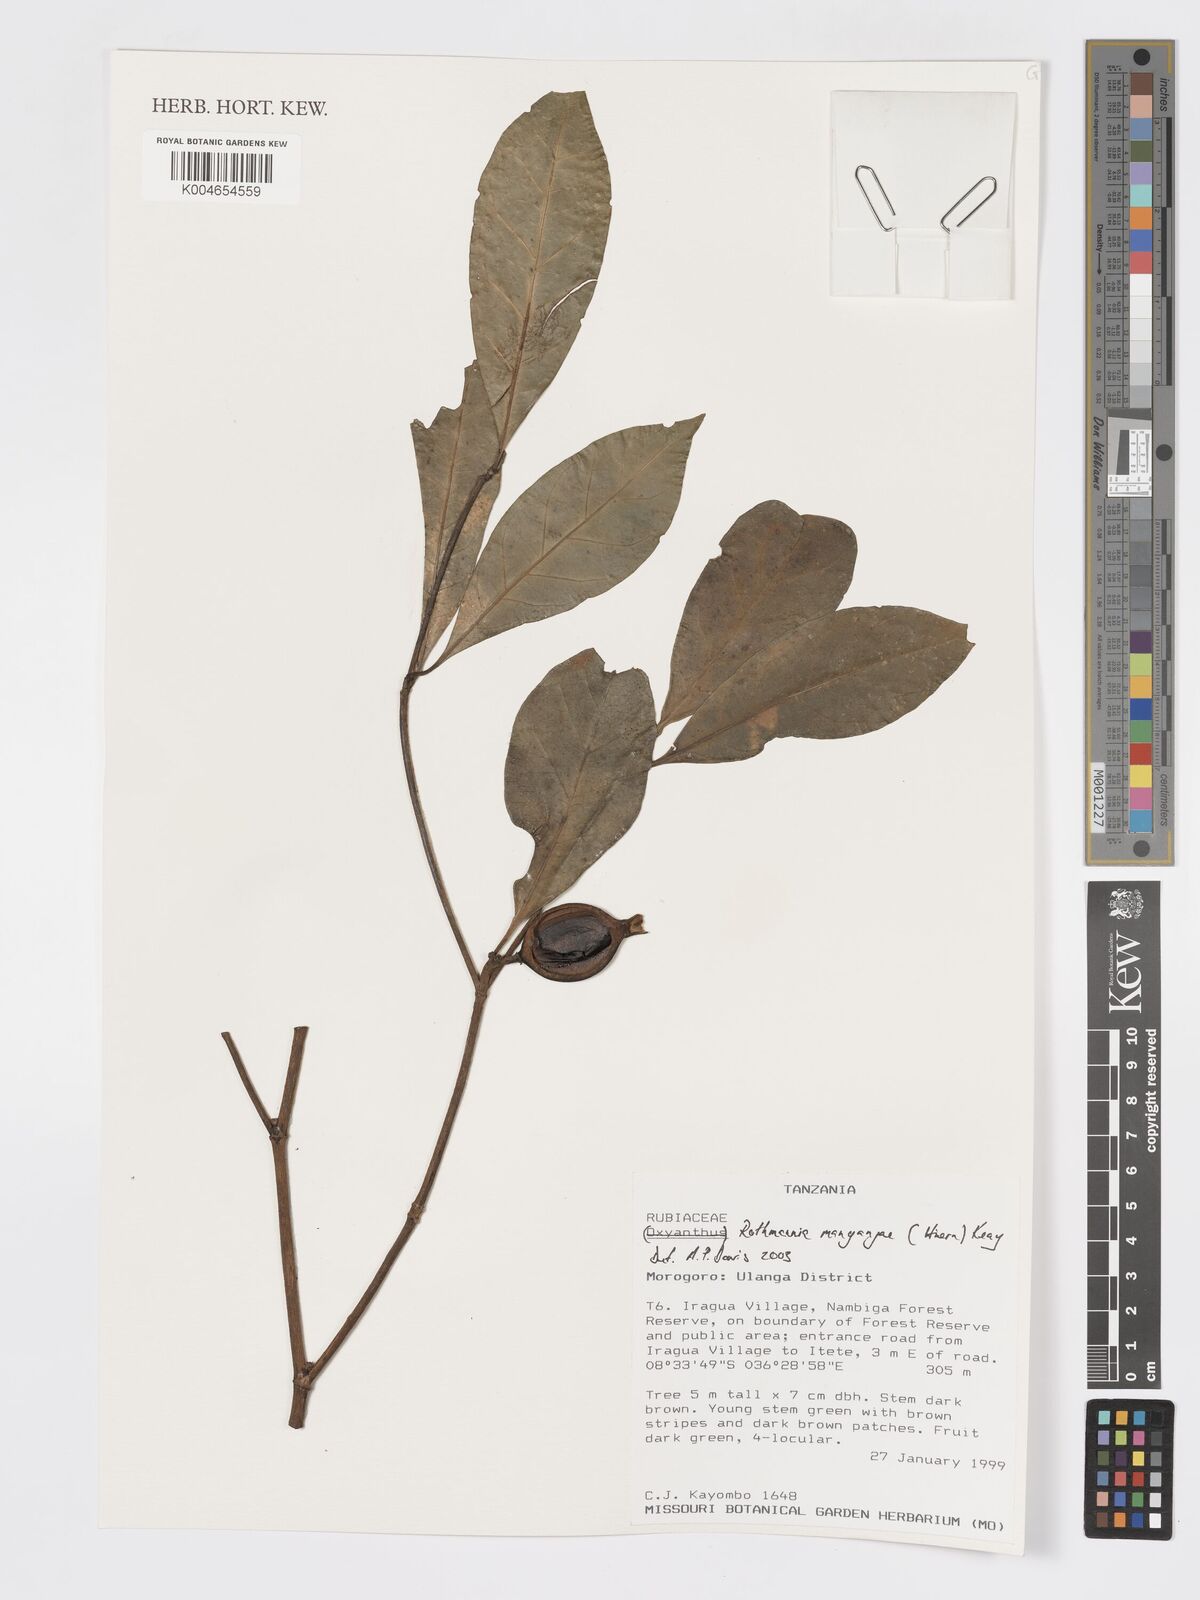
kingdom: Plantae
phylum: Tracheophyta
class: Magnoliopsida
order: Gentianales
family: Rubiaceae
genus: Rothmannia
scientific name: Rothmannia manganjae
